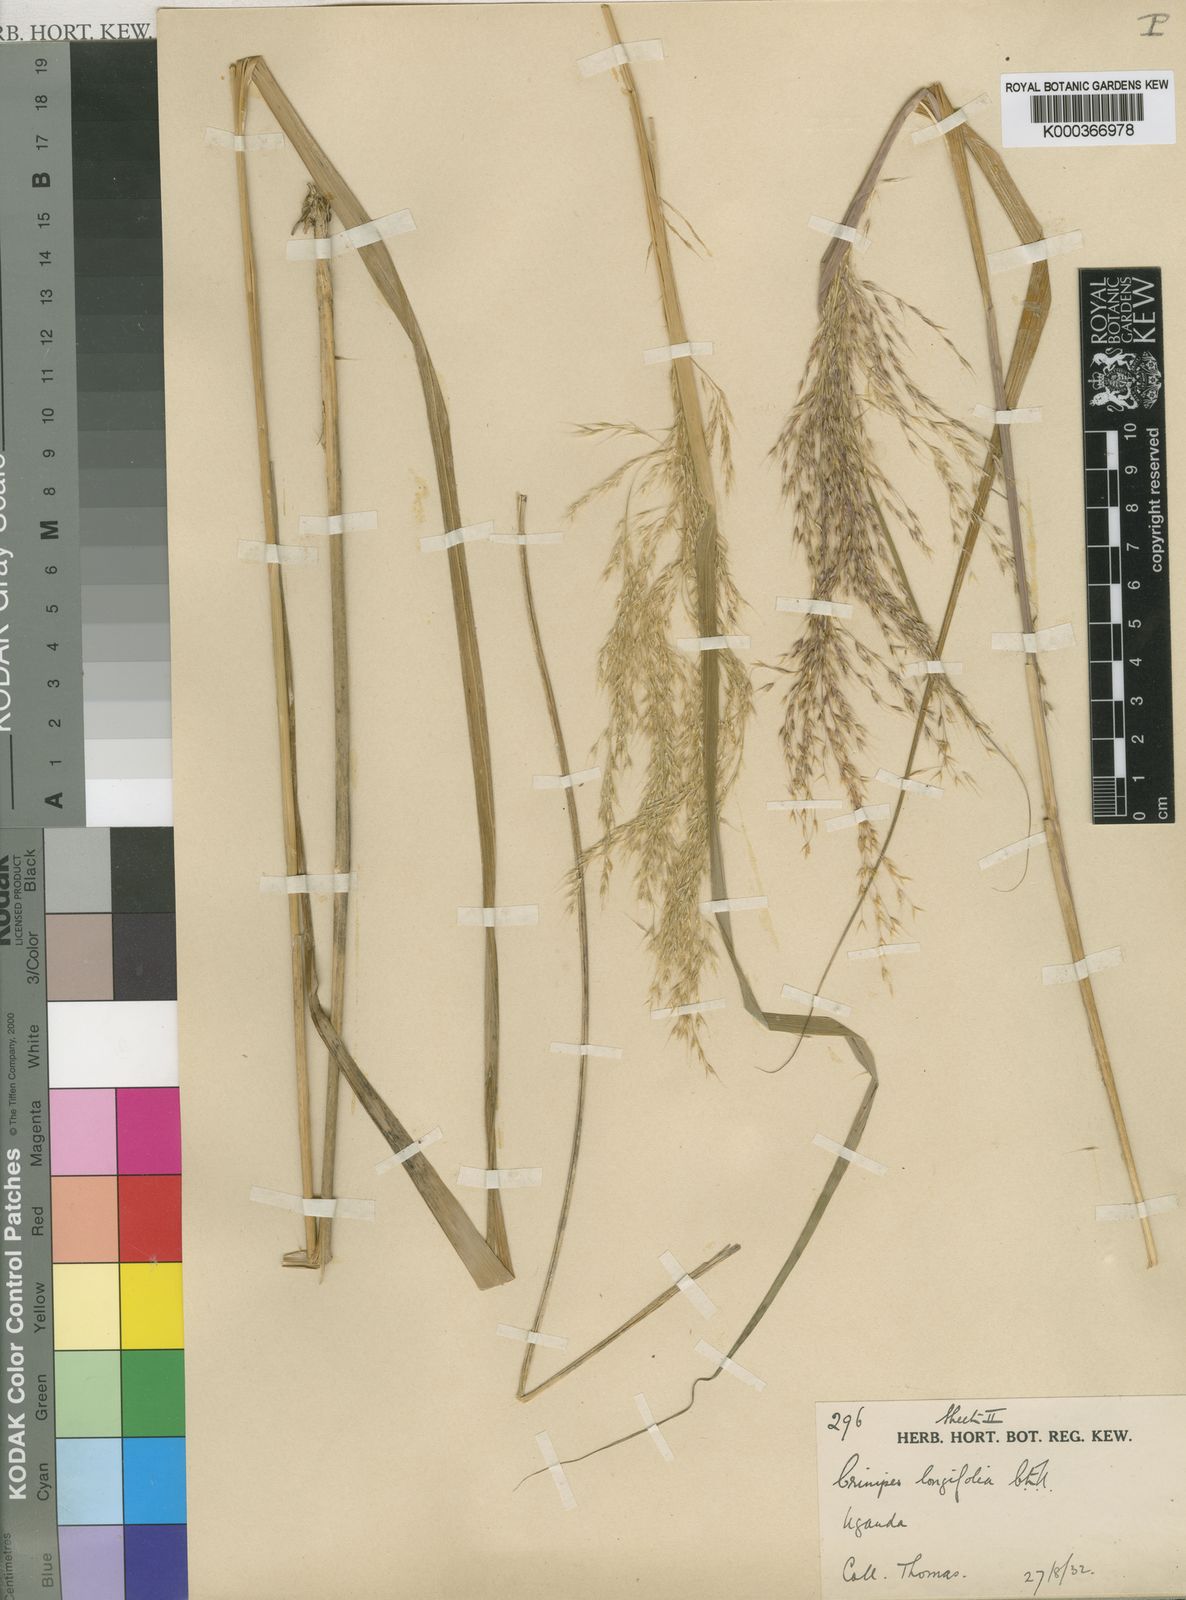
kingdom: Plantae
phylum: Tracheophyta
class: Liliopsida
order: Poales
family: Poaceae
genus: Crinipes
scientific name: Crinipes longifolius
